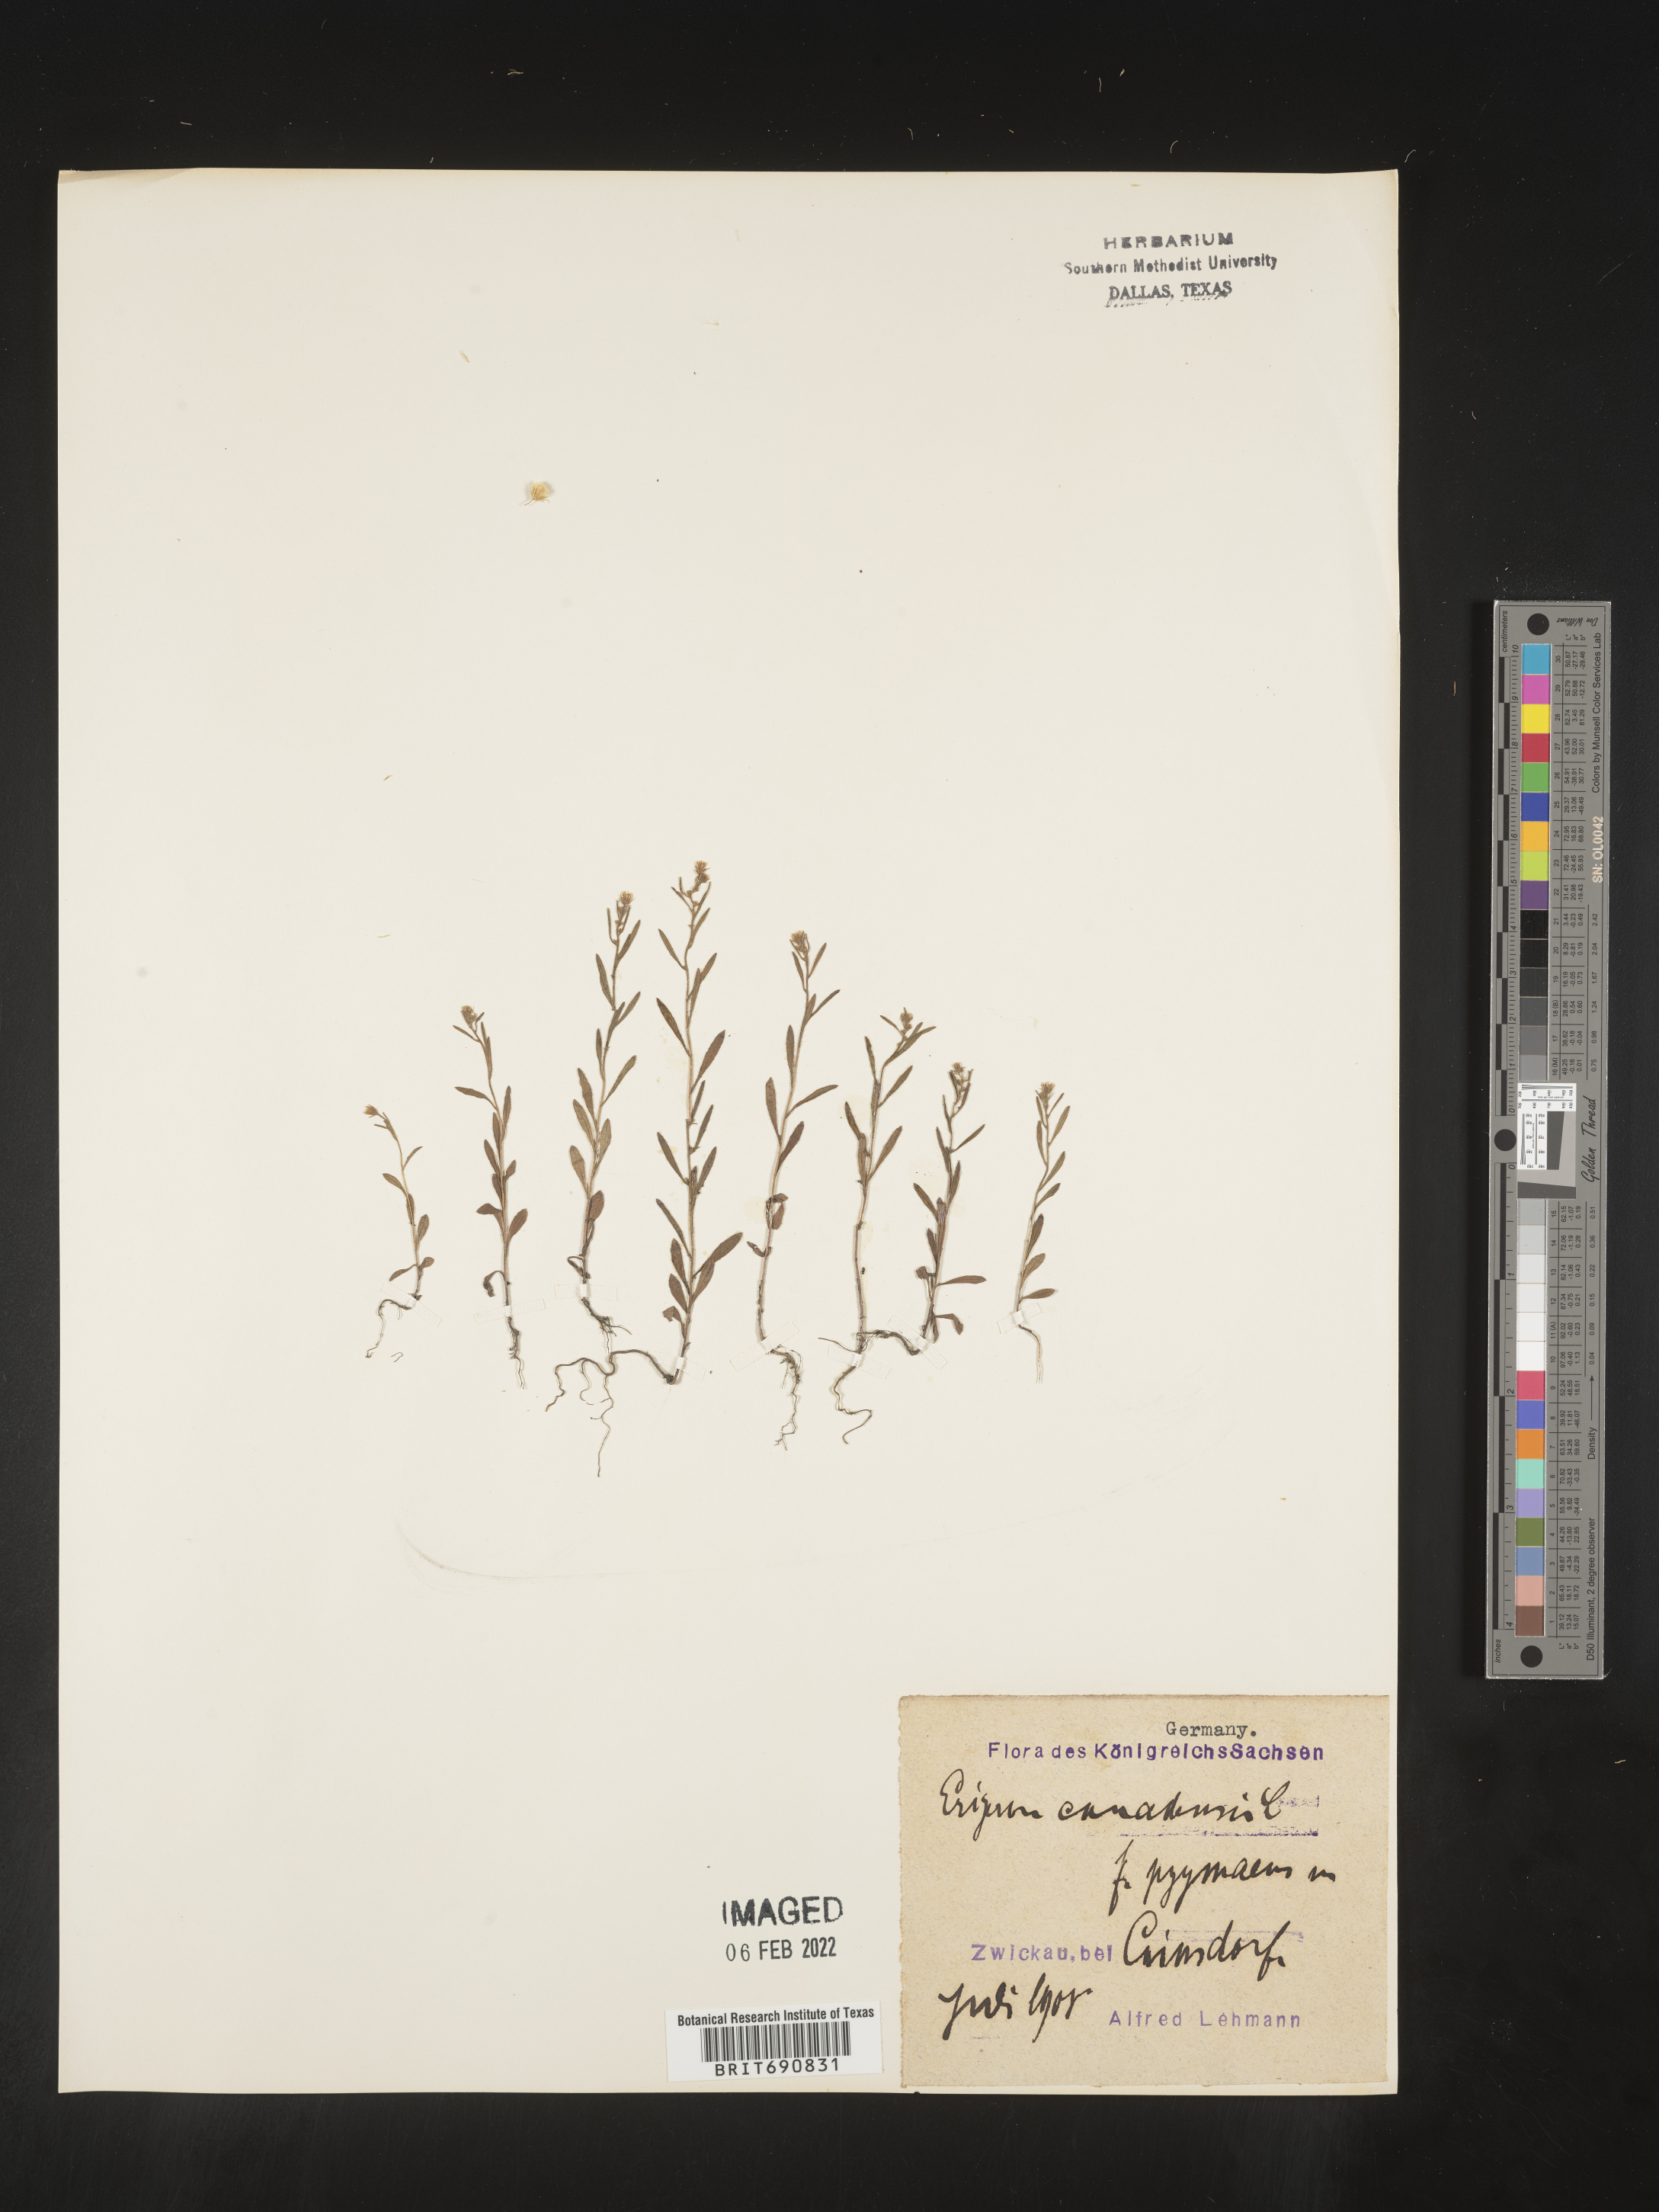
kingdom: Plantae
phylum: Tracheophyta
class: Magnoliopsida
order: Asterales
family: Asteraceae
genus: Conyza
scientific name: Conyza
